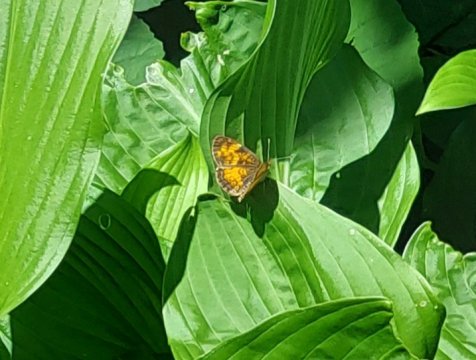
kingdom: Animalia
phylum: Arthropoda
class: Insecta
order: Lepidoptera
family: Nymphalidae
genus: Phyciodes
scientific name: Phyciodes tharos
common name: Northern Crescent
